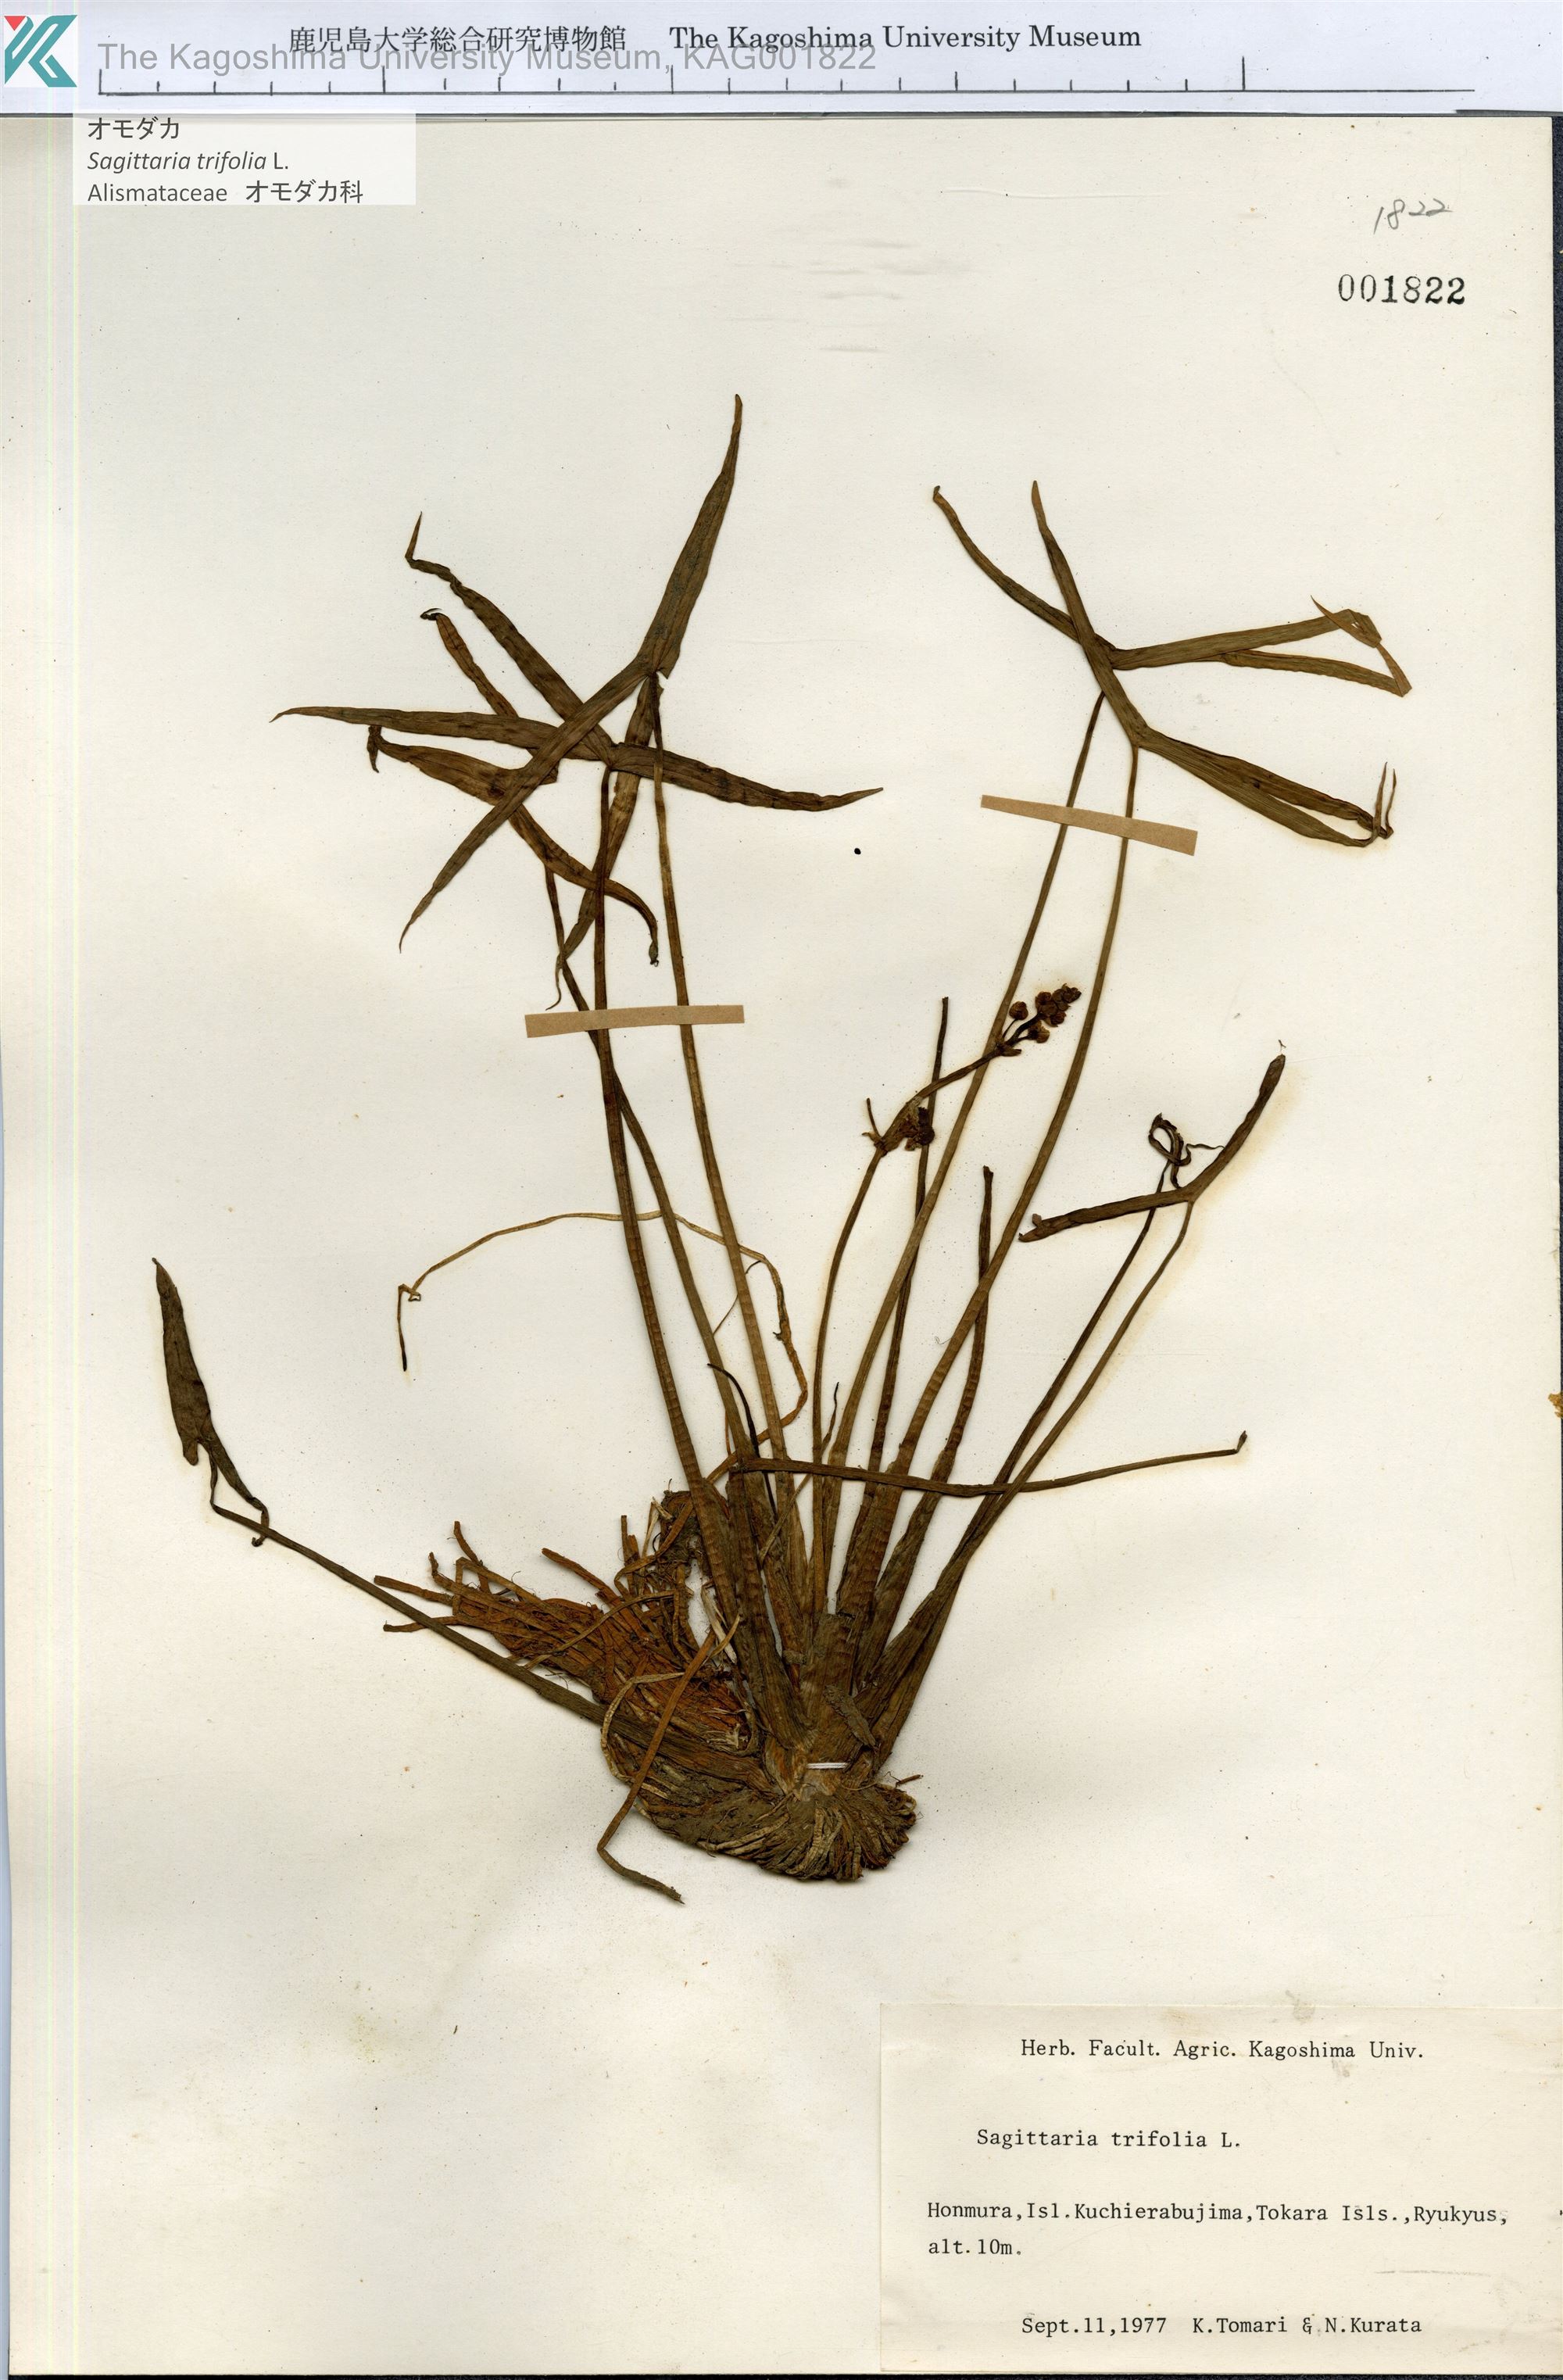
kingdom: Plantae
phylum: Tracheophyta
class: Liliopsida
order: Alismatales
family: Alismataceae
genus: Sagittaria
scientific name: Sagittaria trifolia
